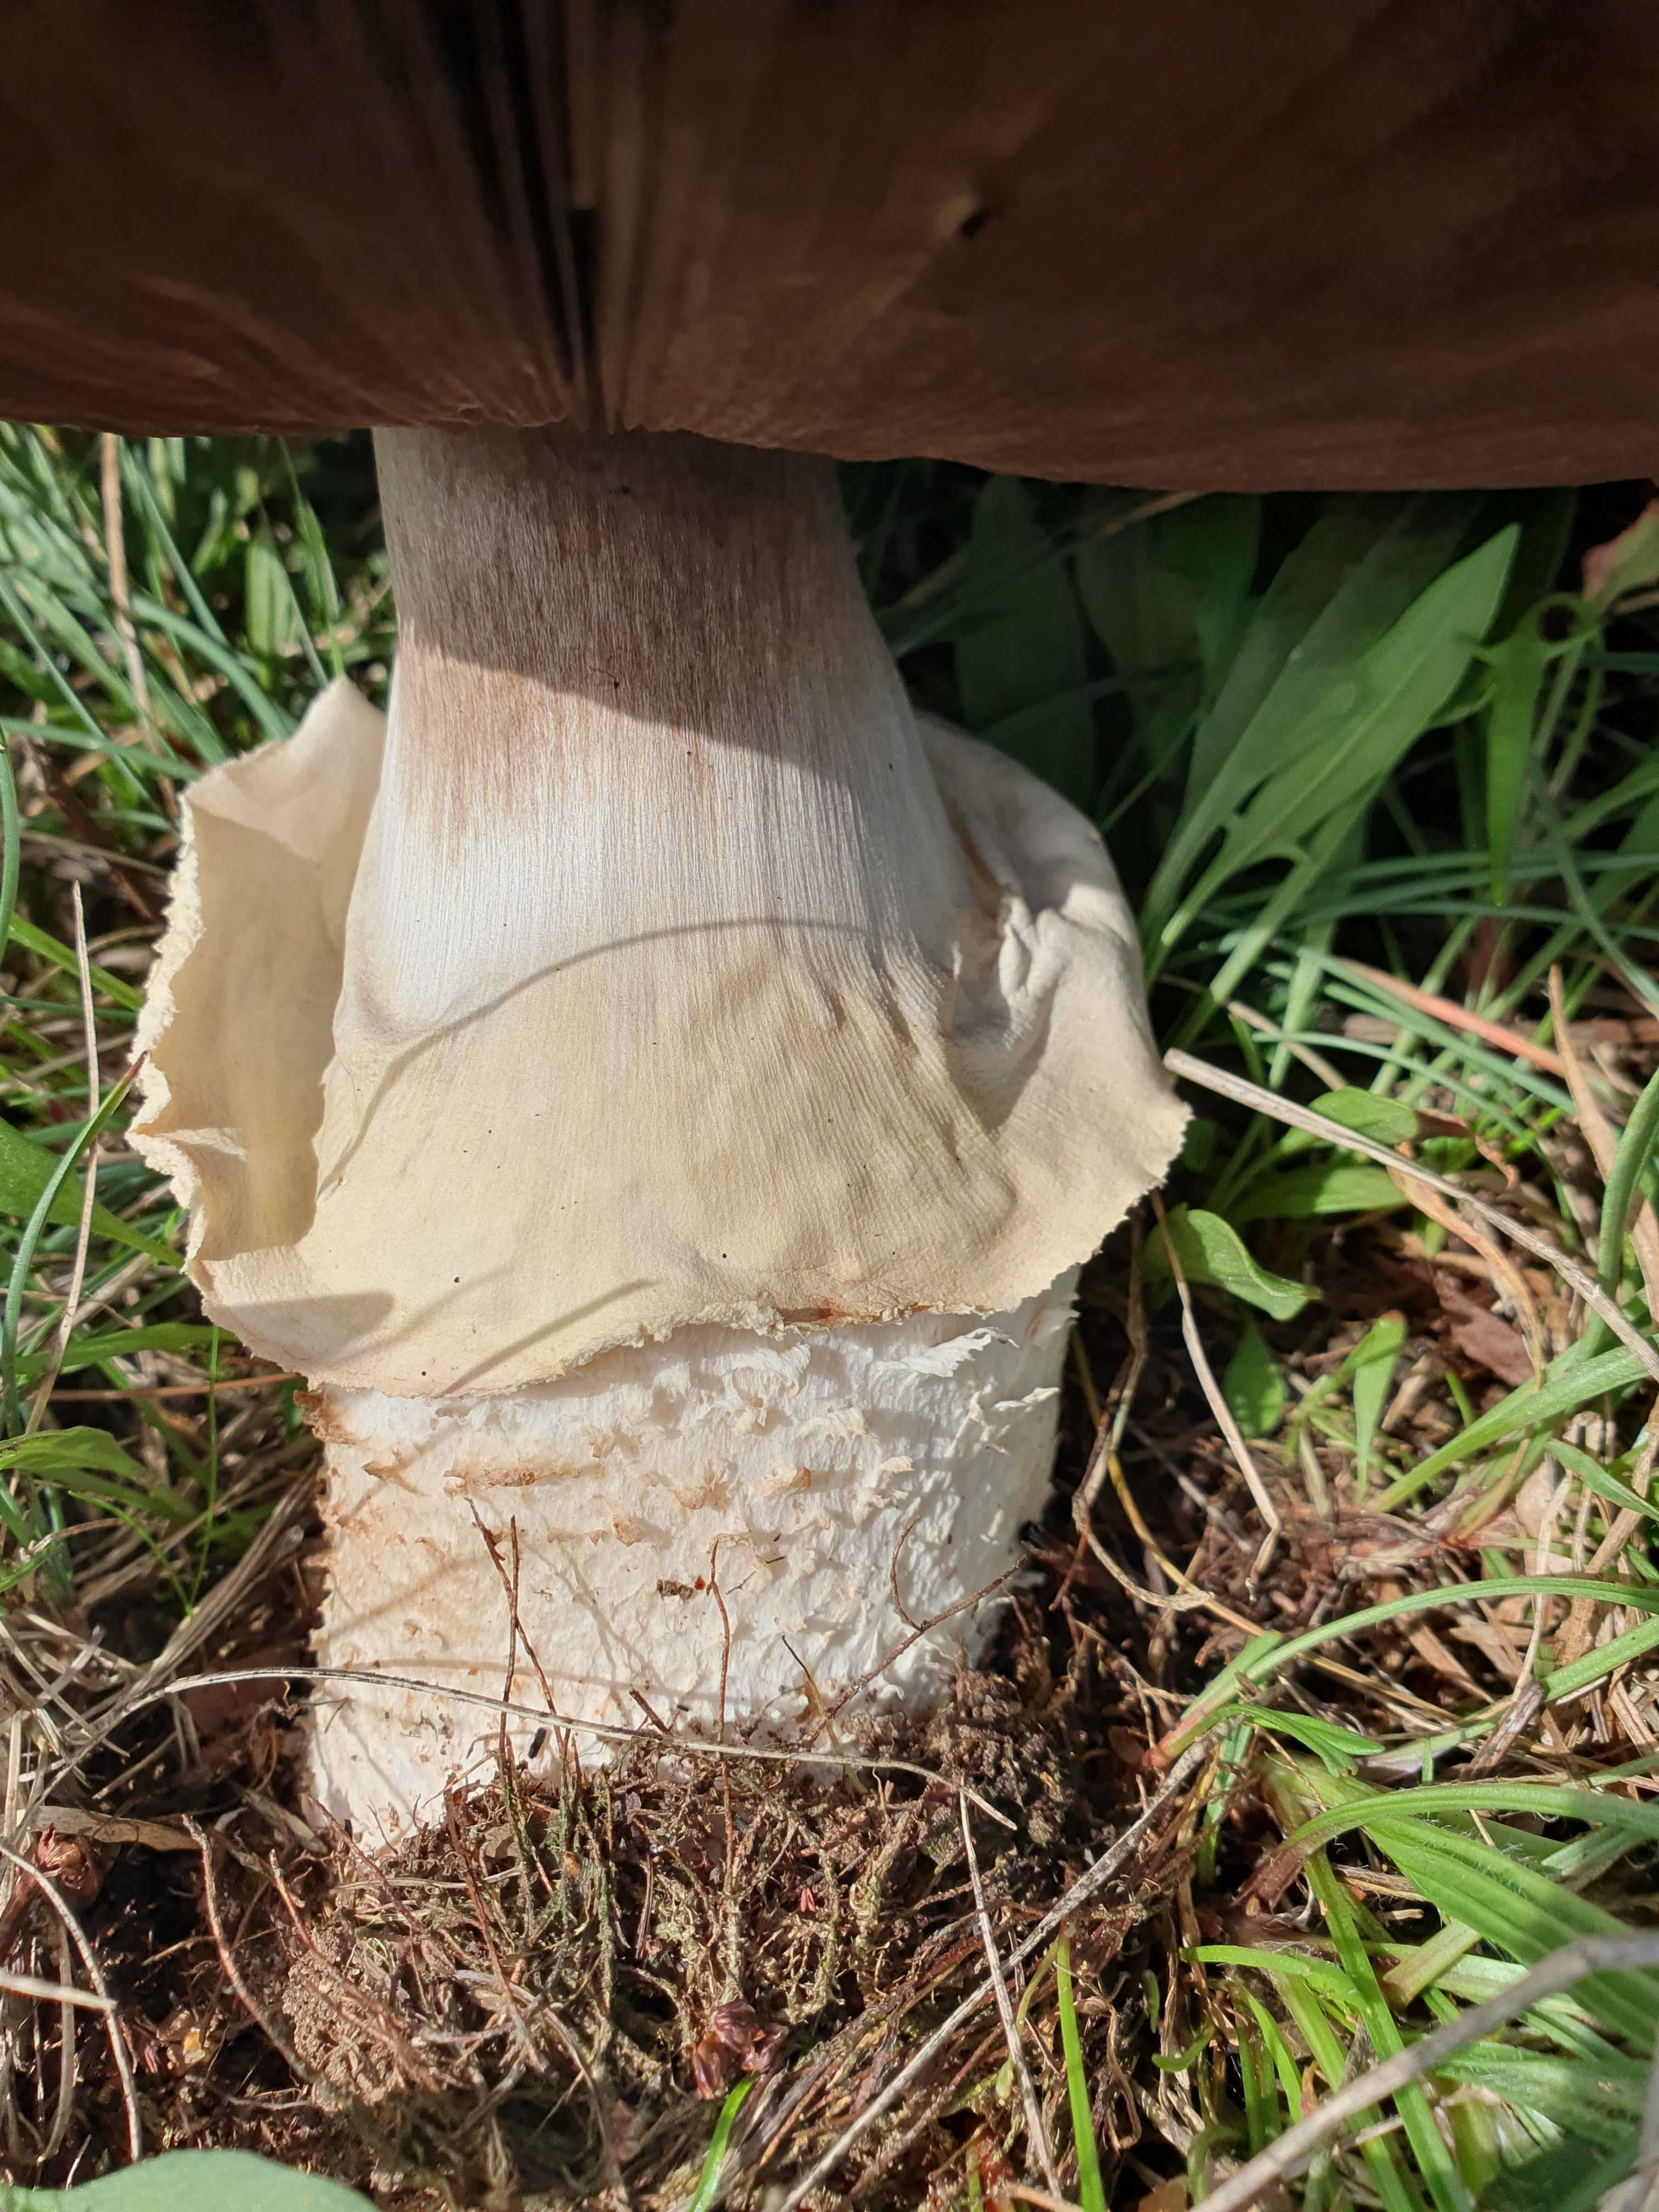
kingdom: Fungi
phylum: Basidiomycota
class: Agaricomycetes
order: Agaricales
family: Agaricaceae
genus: Agaricus
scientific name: Agaricus
